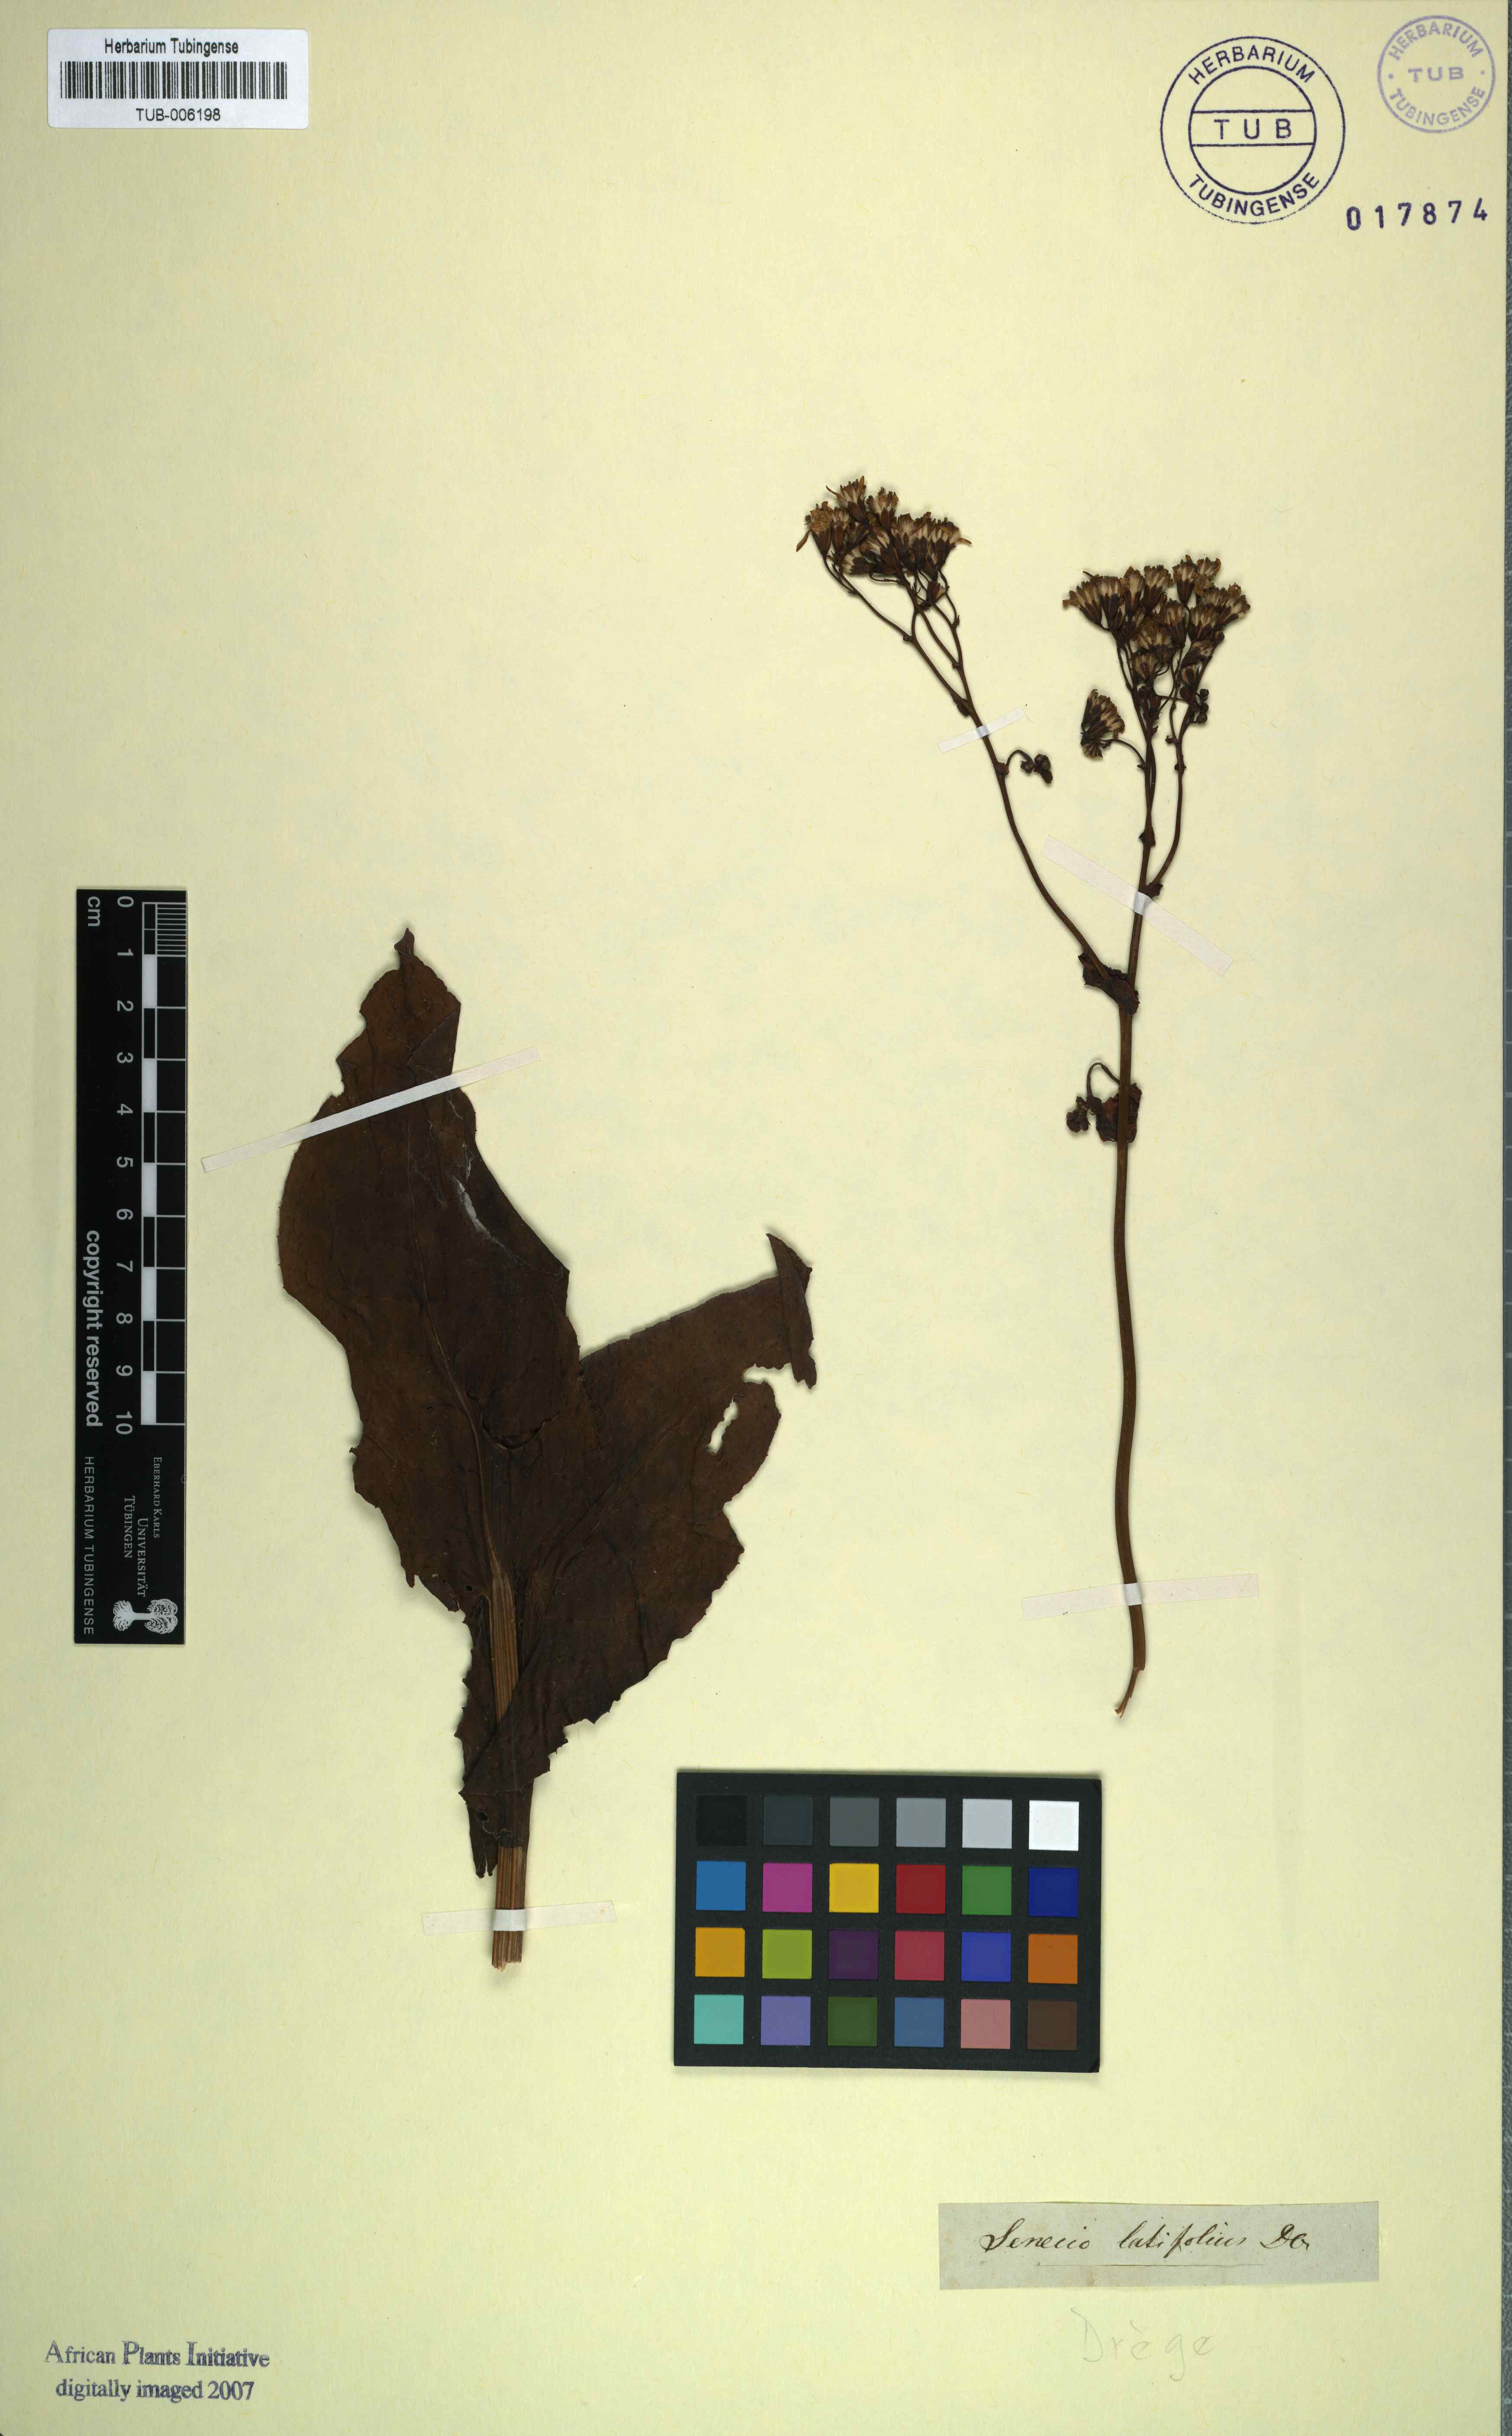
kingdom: Plantae
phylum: Tracheophyta
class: Magnoliopsida
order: Asterales
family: Asteraceae
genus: Senecio
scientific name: Senecio retrorsus
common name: Ragwort
